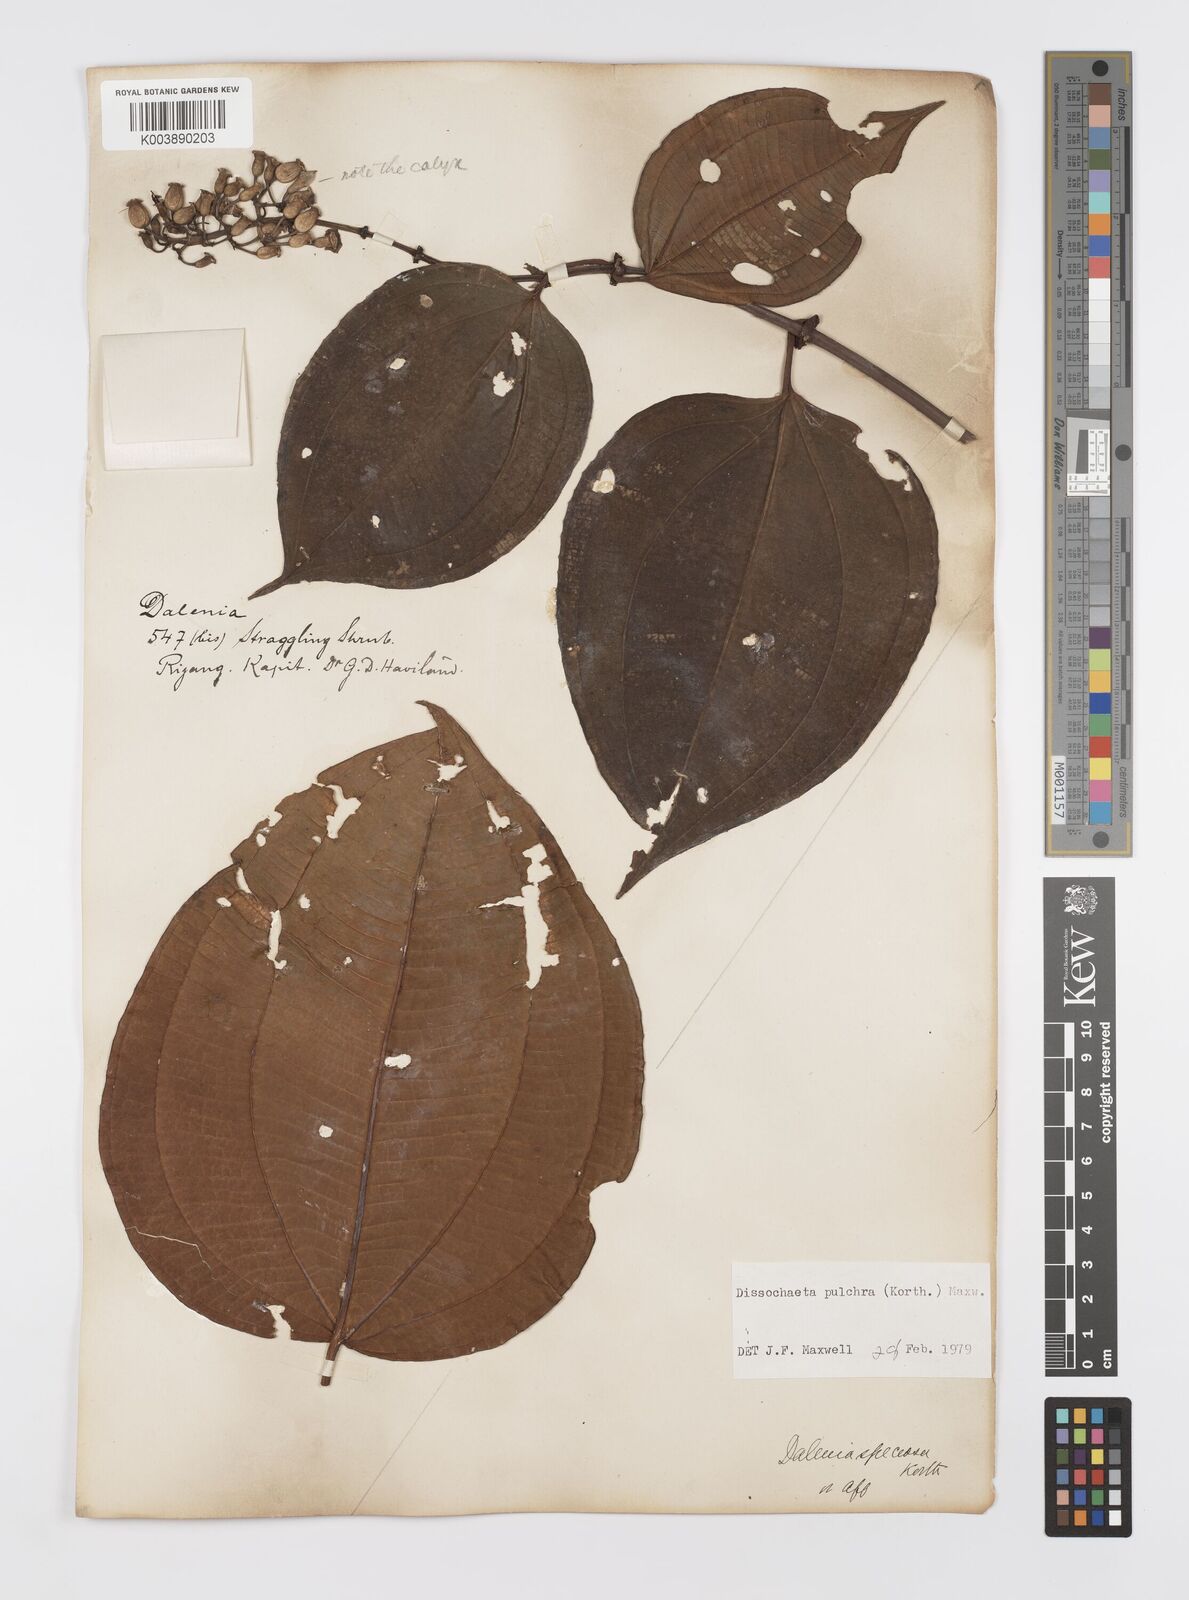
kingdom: Plantae
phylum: Tracheophyta
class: Magnoliopsida
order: Myrtales
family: Melastomataceae
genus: Dalenia
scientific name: Dalenia pulchra
